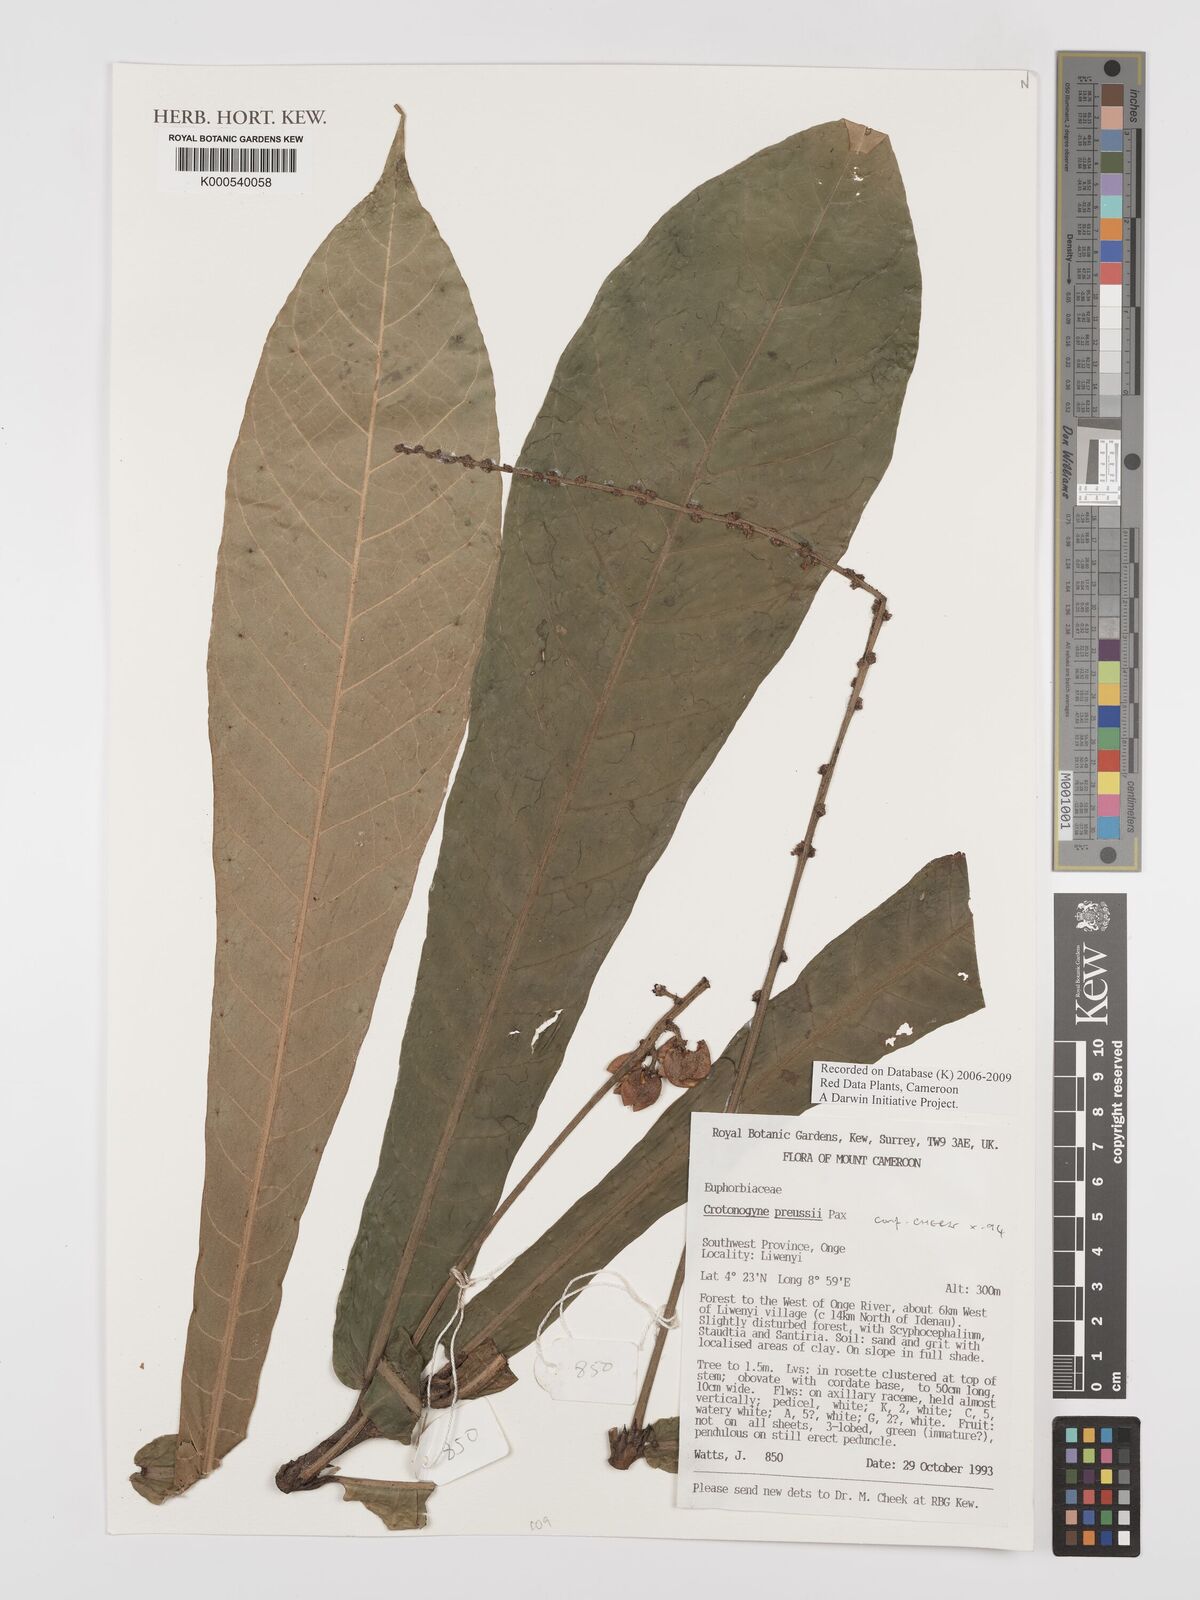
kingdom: Plantae
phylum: Tracheophyta
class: Magnoliopsida
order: Malpighiales
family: Euphorbiaceae
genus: Crotonogyne
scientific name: Crotonogyne preussii
